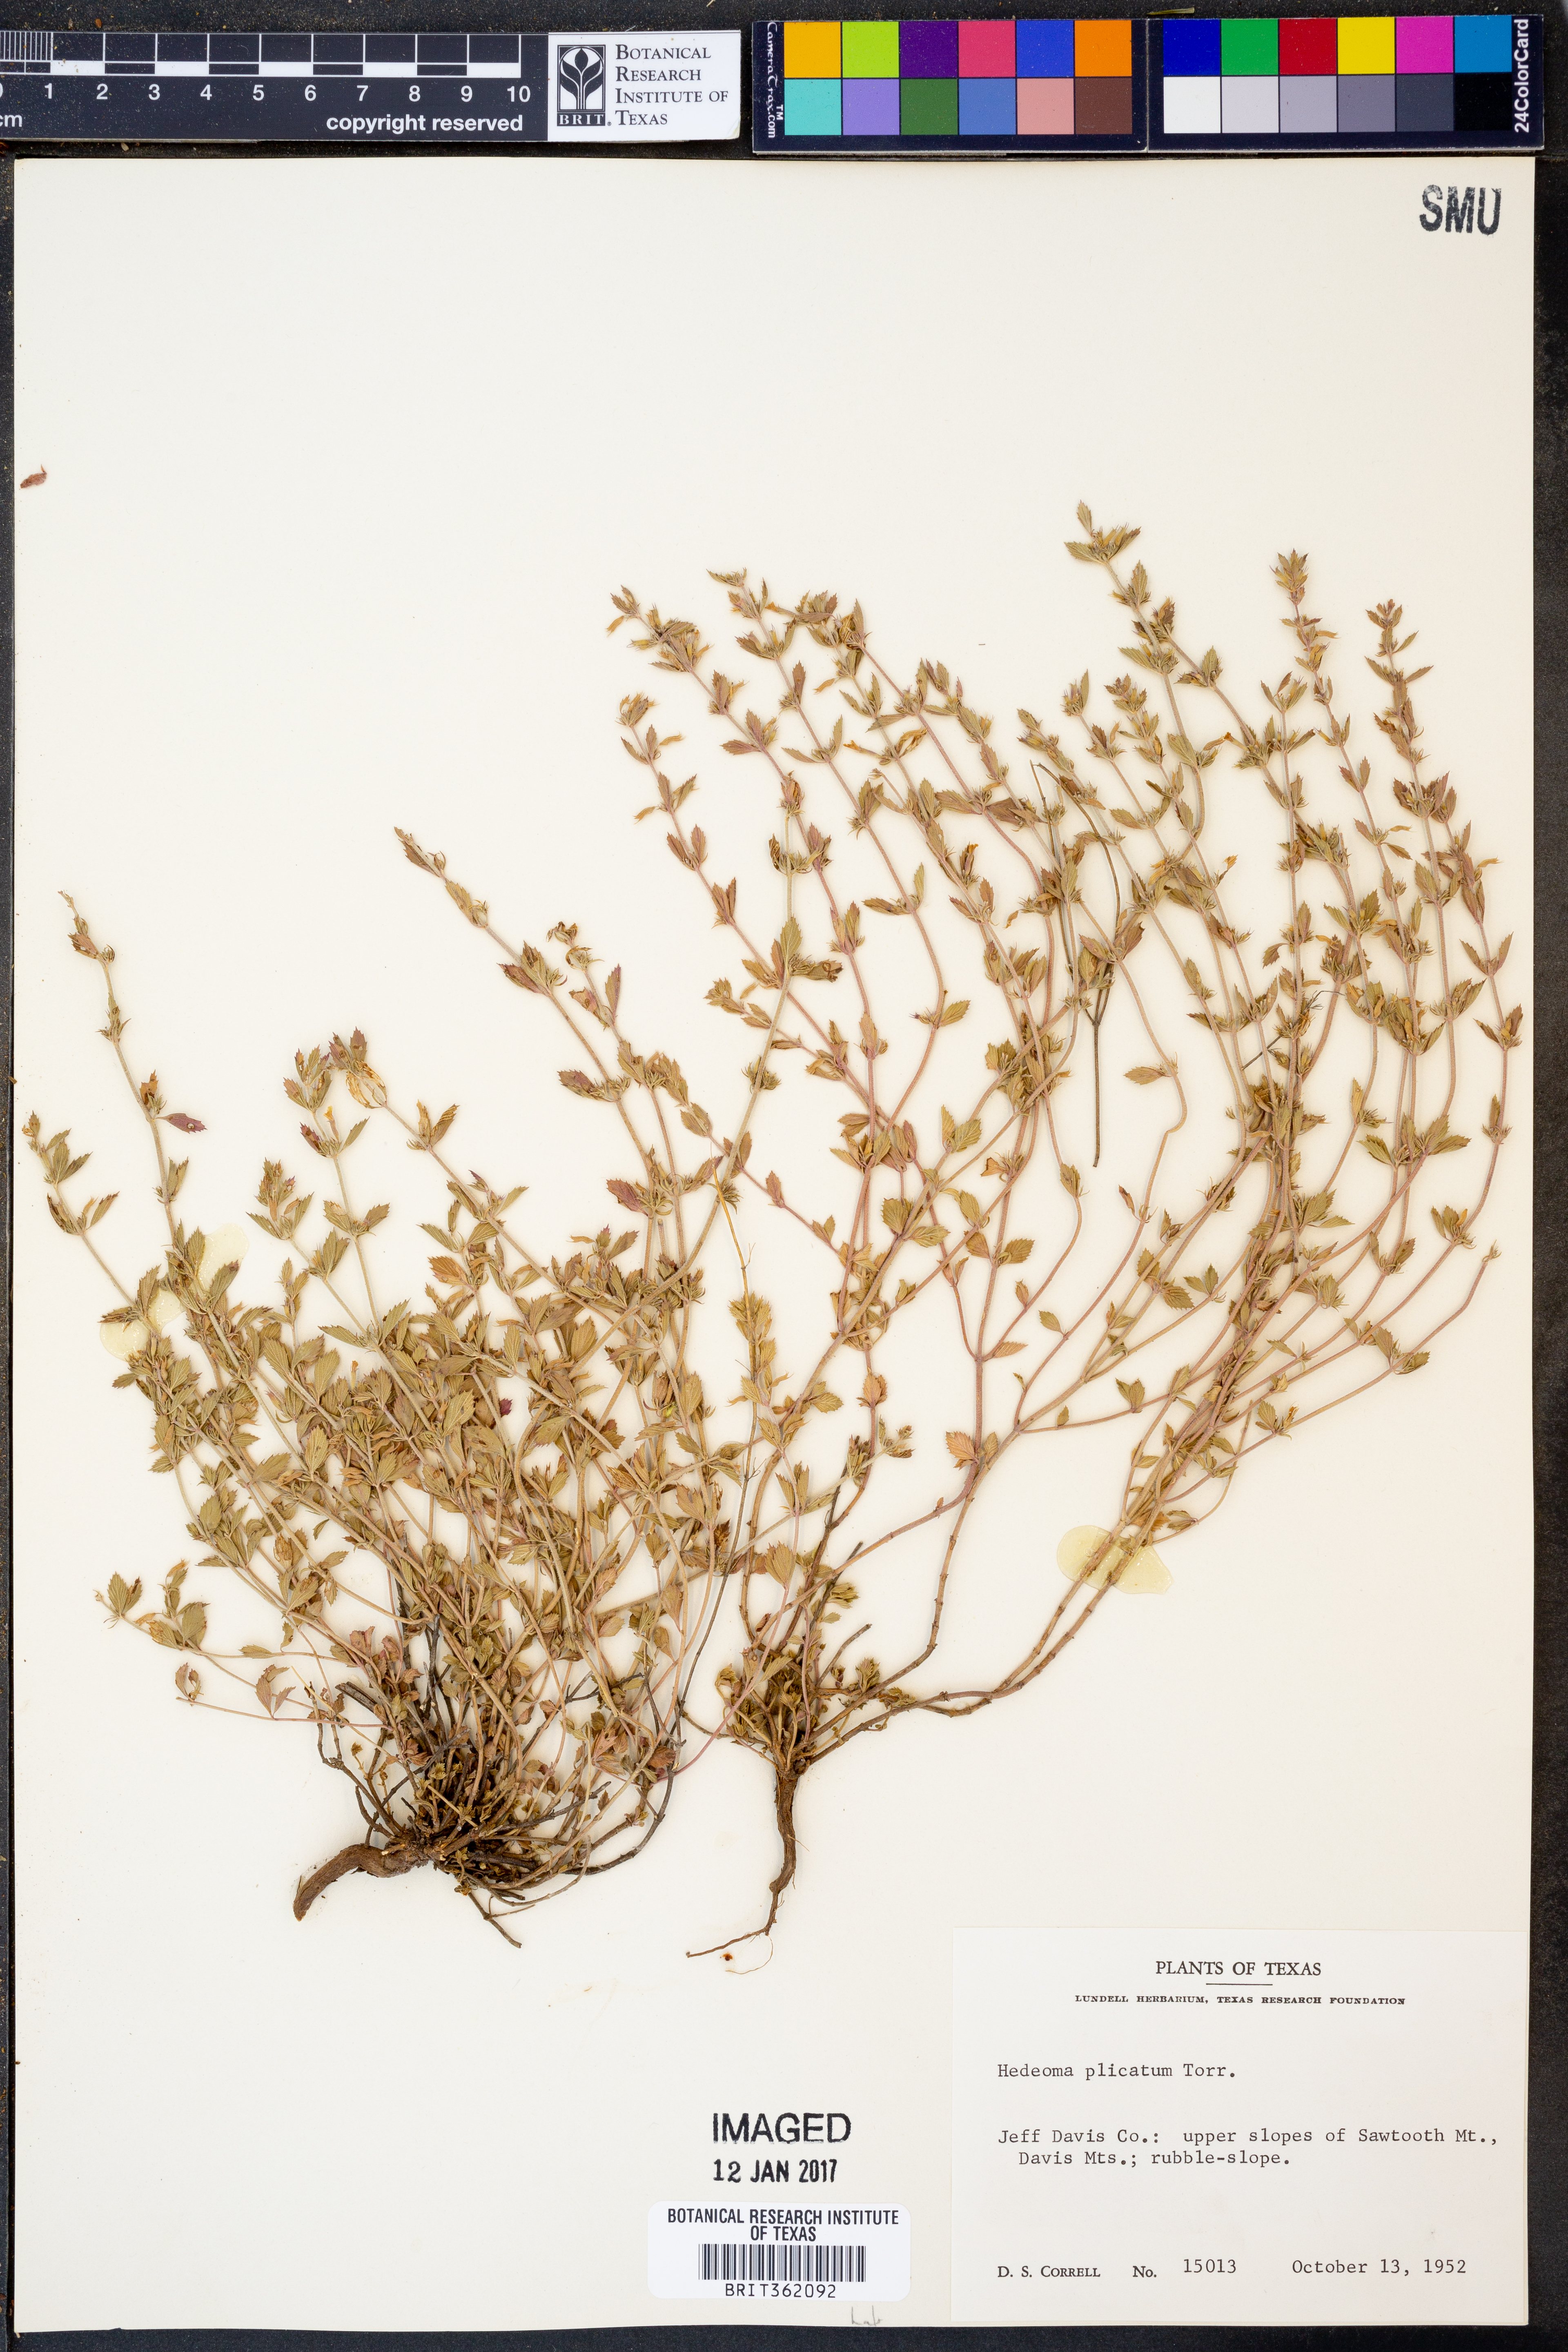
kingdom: Plantae
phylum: Tracheophyta
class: Magnoliopsida
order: Lamiales
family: Lamiaceae
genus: Hedeoma
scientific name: Hedeoma plicata
